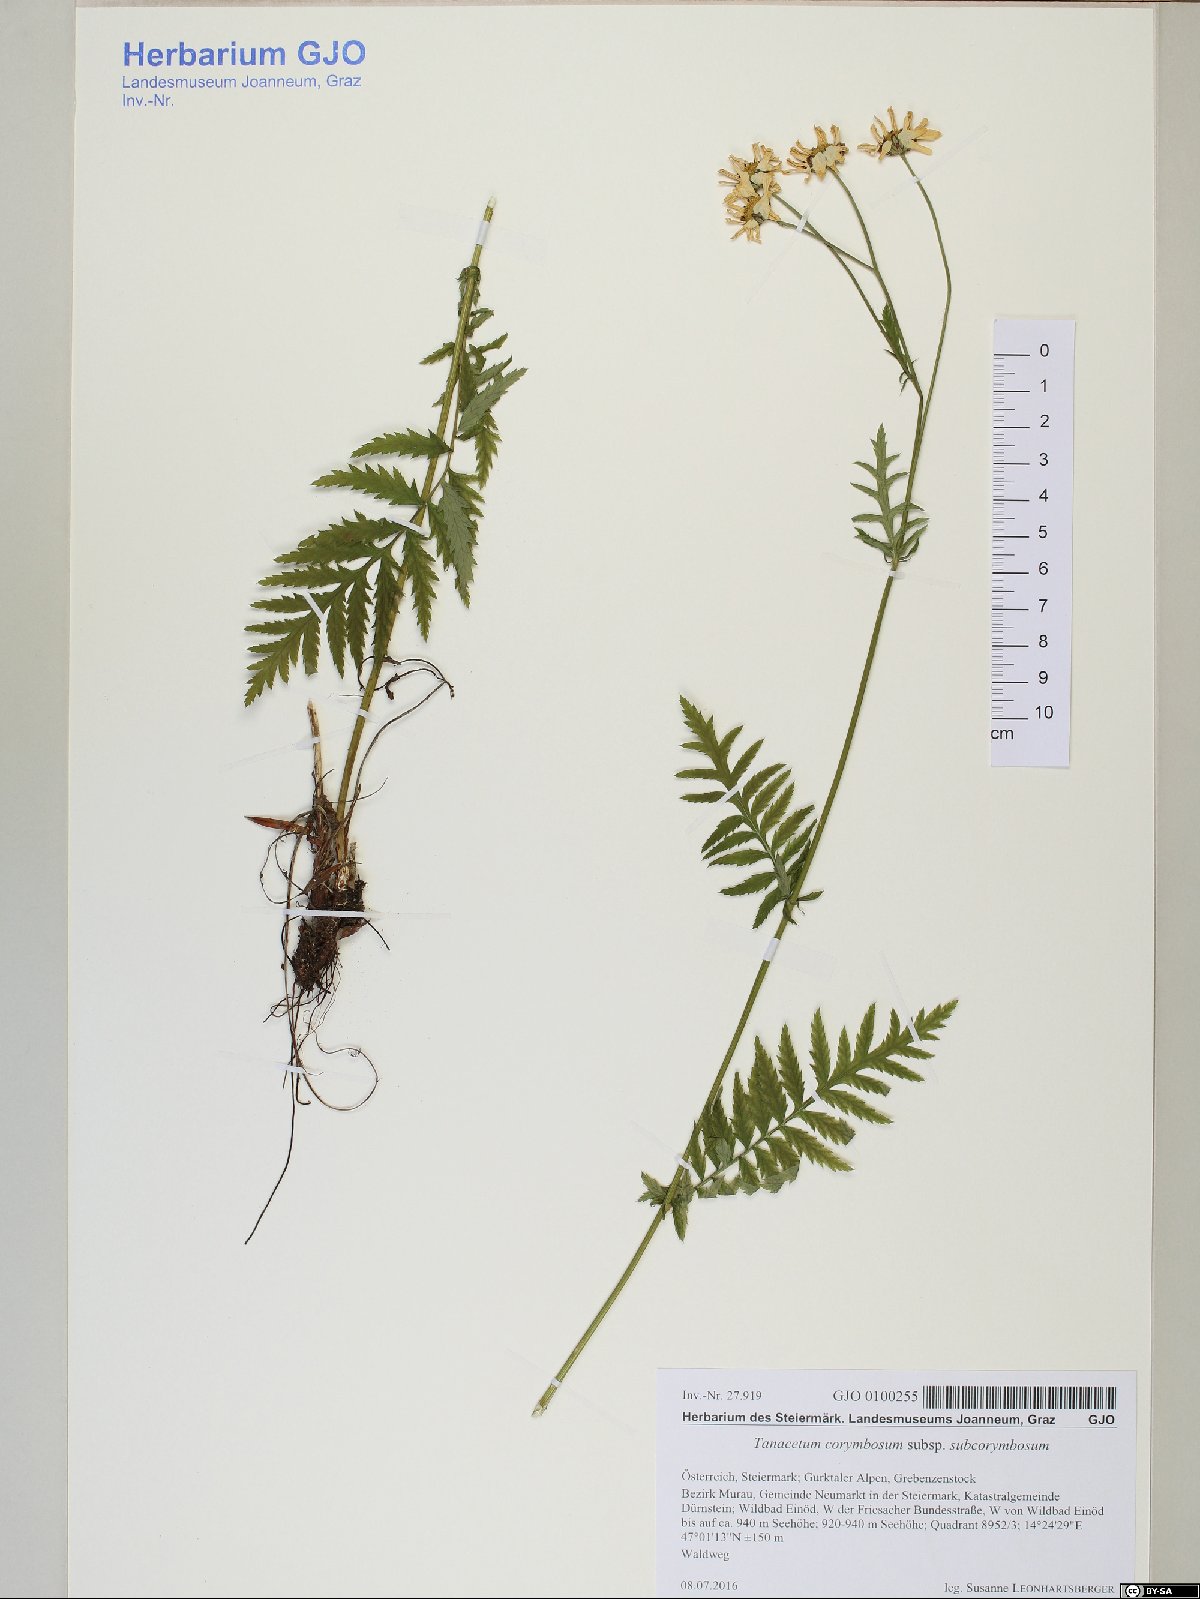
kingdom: Plantae
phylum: Tracheophyta
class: Magnoliopsida
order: Asterales
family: Asteraceae
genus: Tanacetum
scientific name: Tanacetum corymbosum
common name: Scentless feverfew
